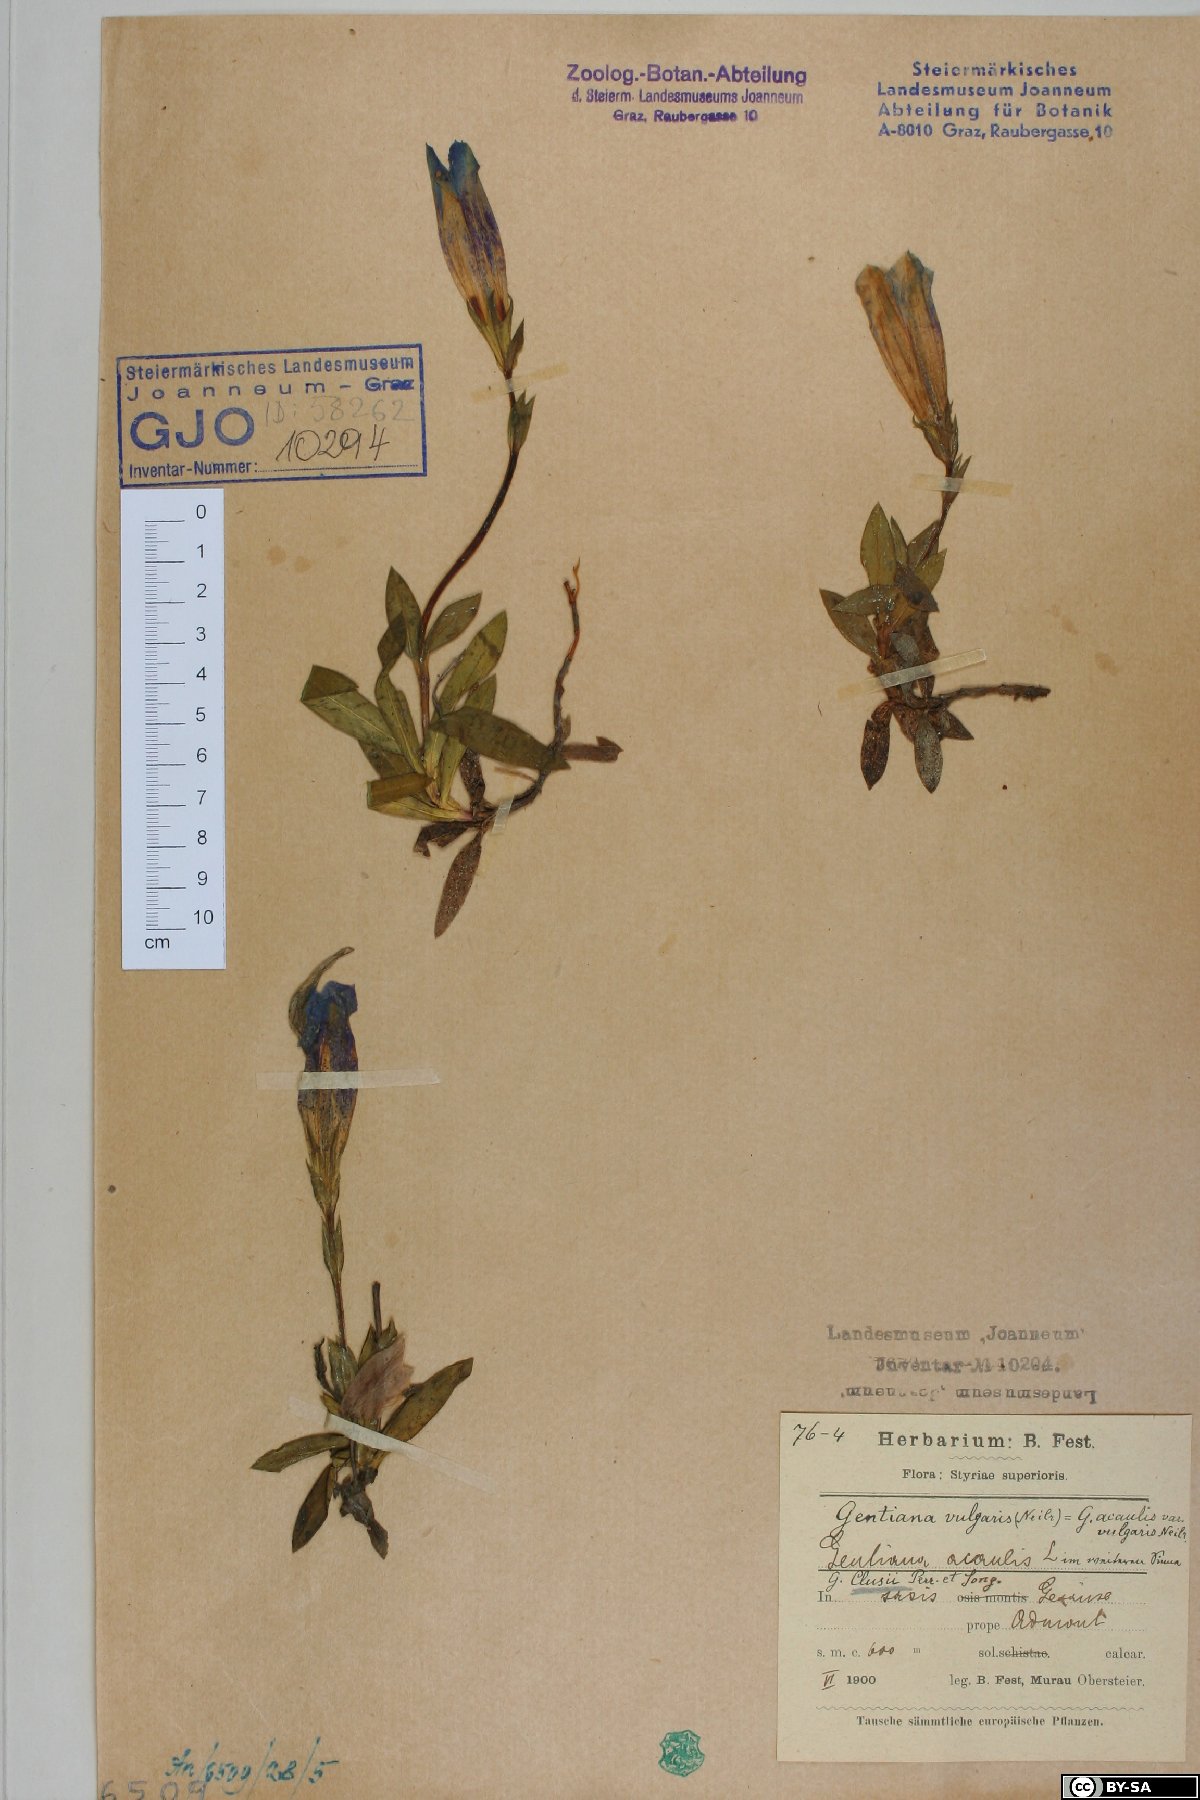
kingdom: Plantae
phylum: Tracheophyta
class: Magnoliopsida
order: Gentianales
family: Gentianaceae
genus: Gentiana
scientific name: Gentiana clusii
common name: Trumpet gentian
